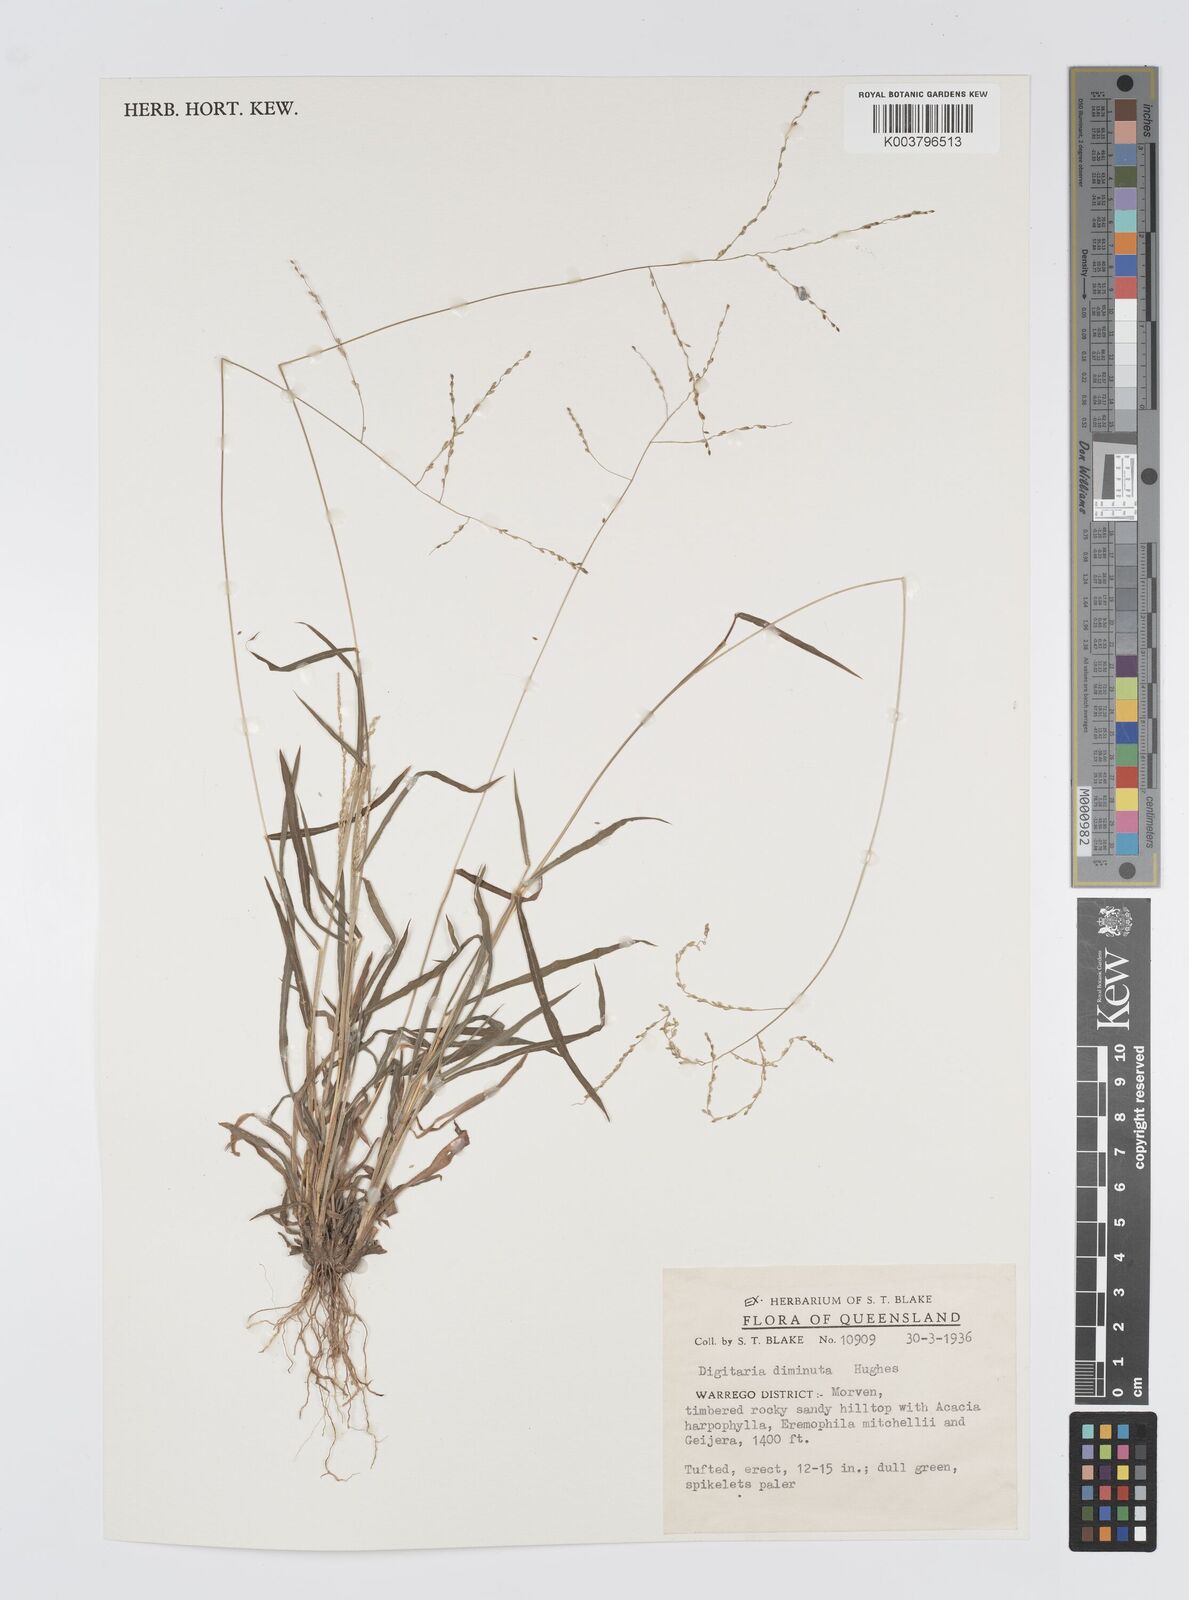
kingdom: Plantae
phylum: Tracheophyta
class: Liliopsida
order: Poales
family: Poaceae
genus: Digitaria
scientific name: Digitaria breviglumis
